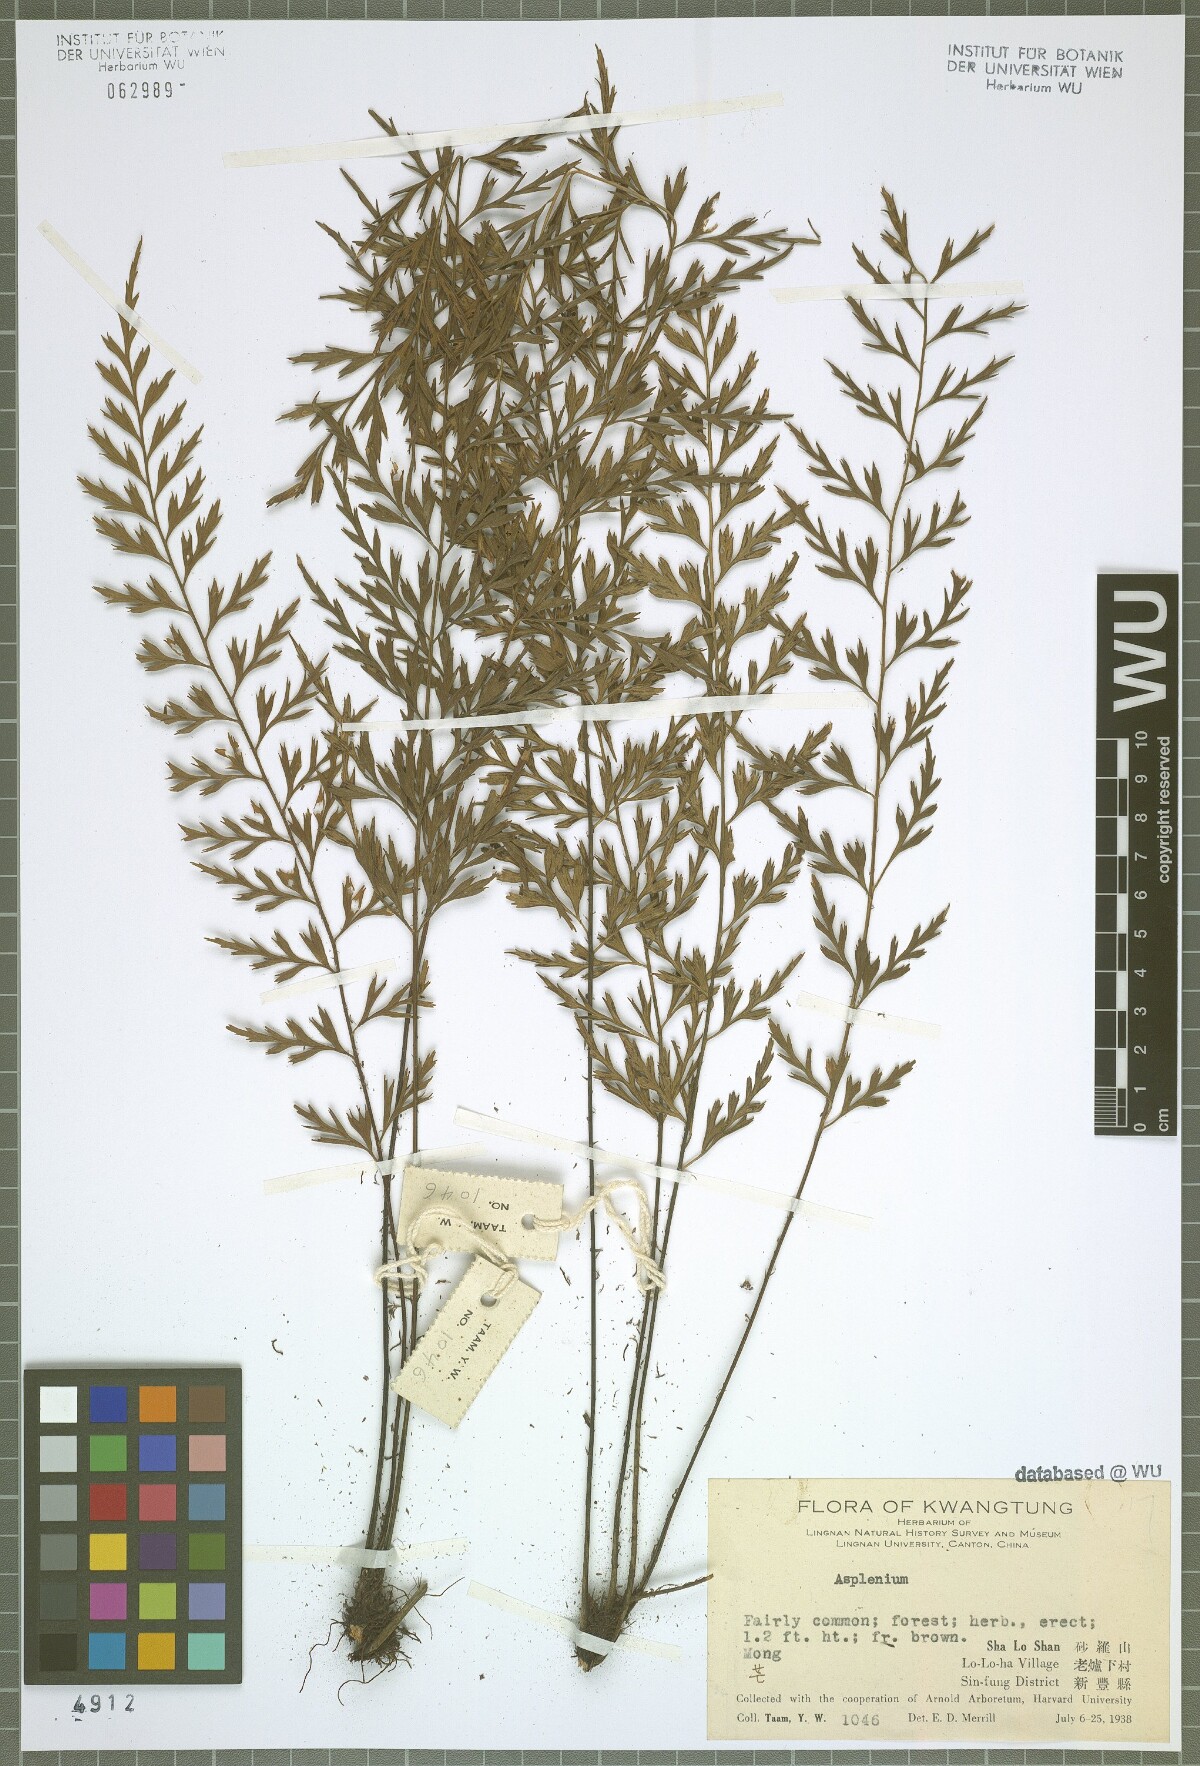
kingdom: Plantae
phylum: Tracheophyta
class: Polypodiopsida
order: Polypodiales
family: Aspleniaceae
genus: Asplenium
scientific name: Asplenium
